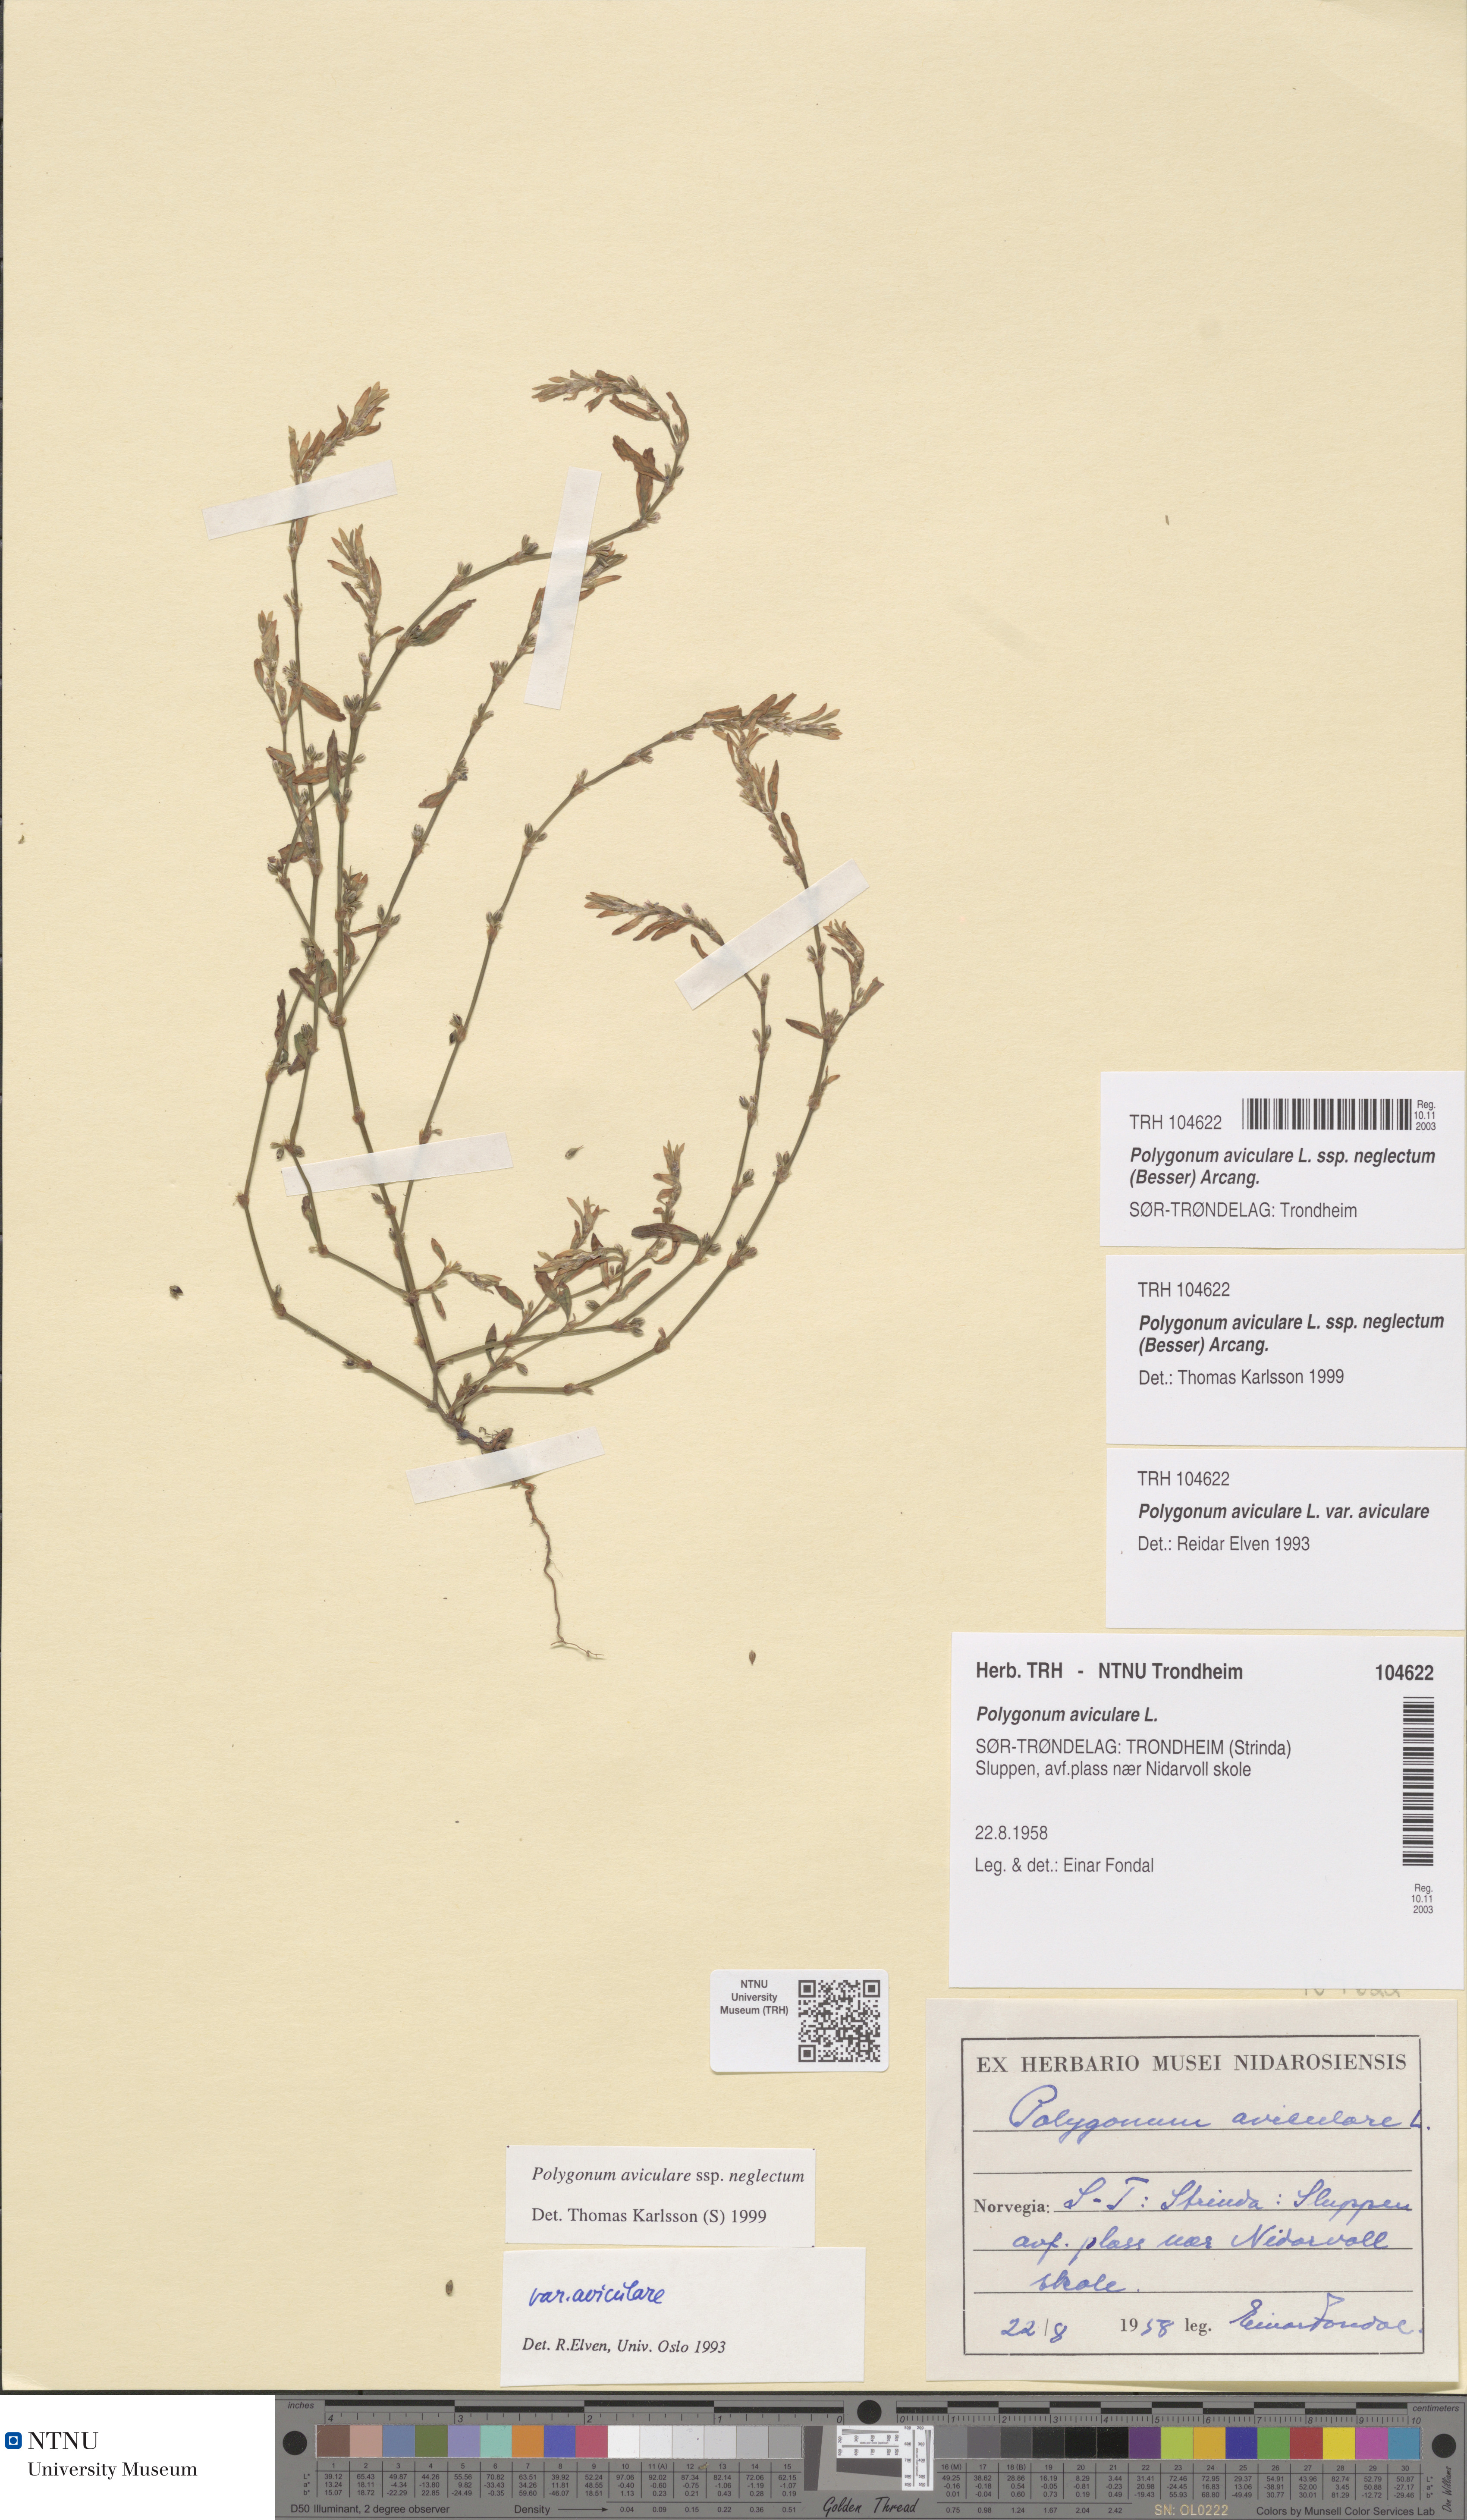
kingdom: Plantae
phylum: Tracheophyta
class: Magnoliopsida
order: Caryophyllales
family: Polygonaceae
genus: Polygonum
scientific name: Polygonum aviculare
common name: Prostrate knotweed
